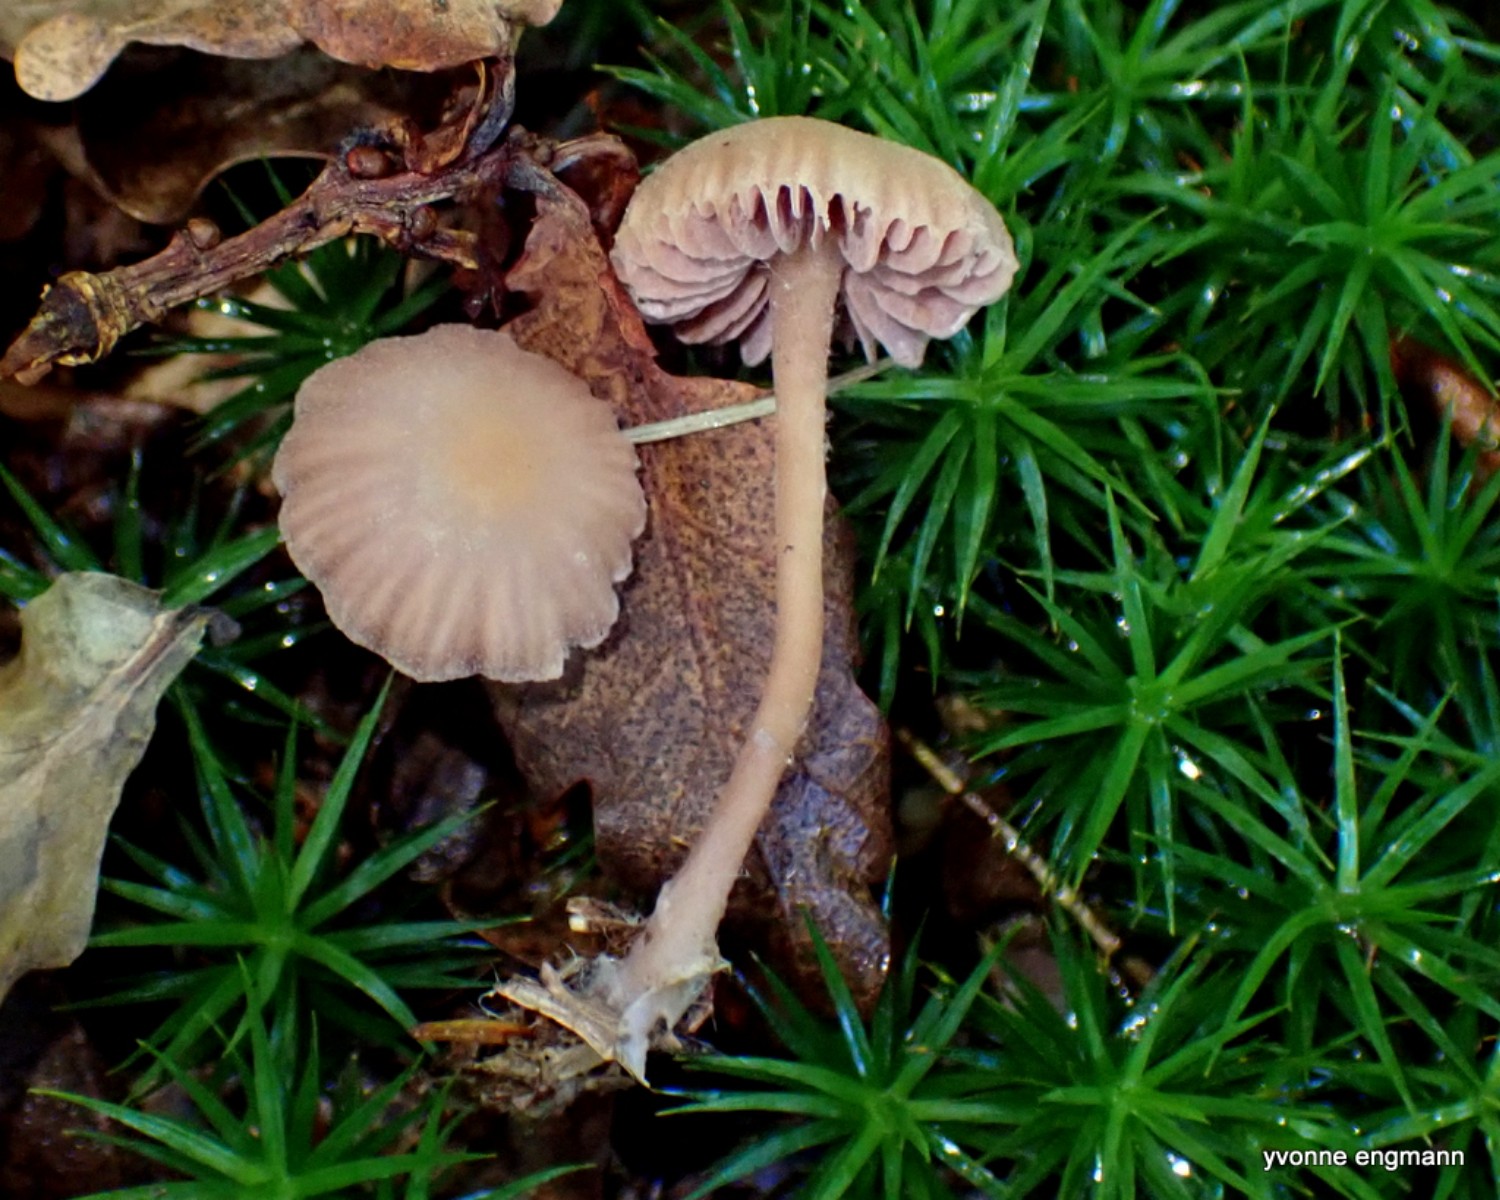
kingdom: Fungi
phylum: Basidiomycota
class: Agaricomycetes
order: Agaricales
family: Hydnangiaceae
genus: Laccaria
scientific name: Laccaria laccata
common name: rød ametysthat
